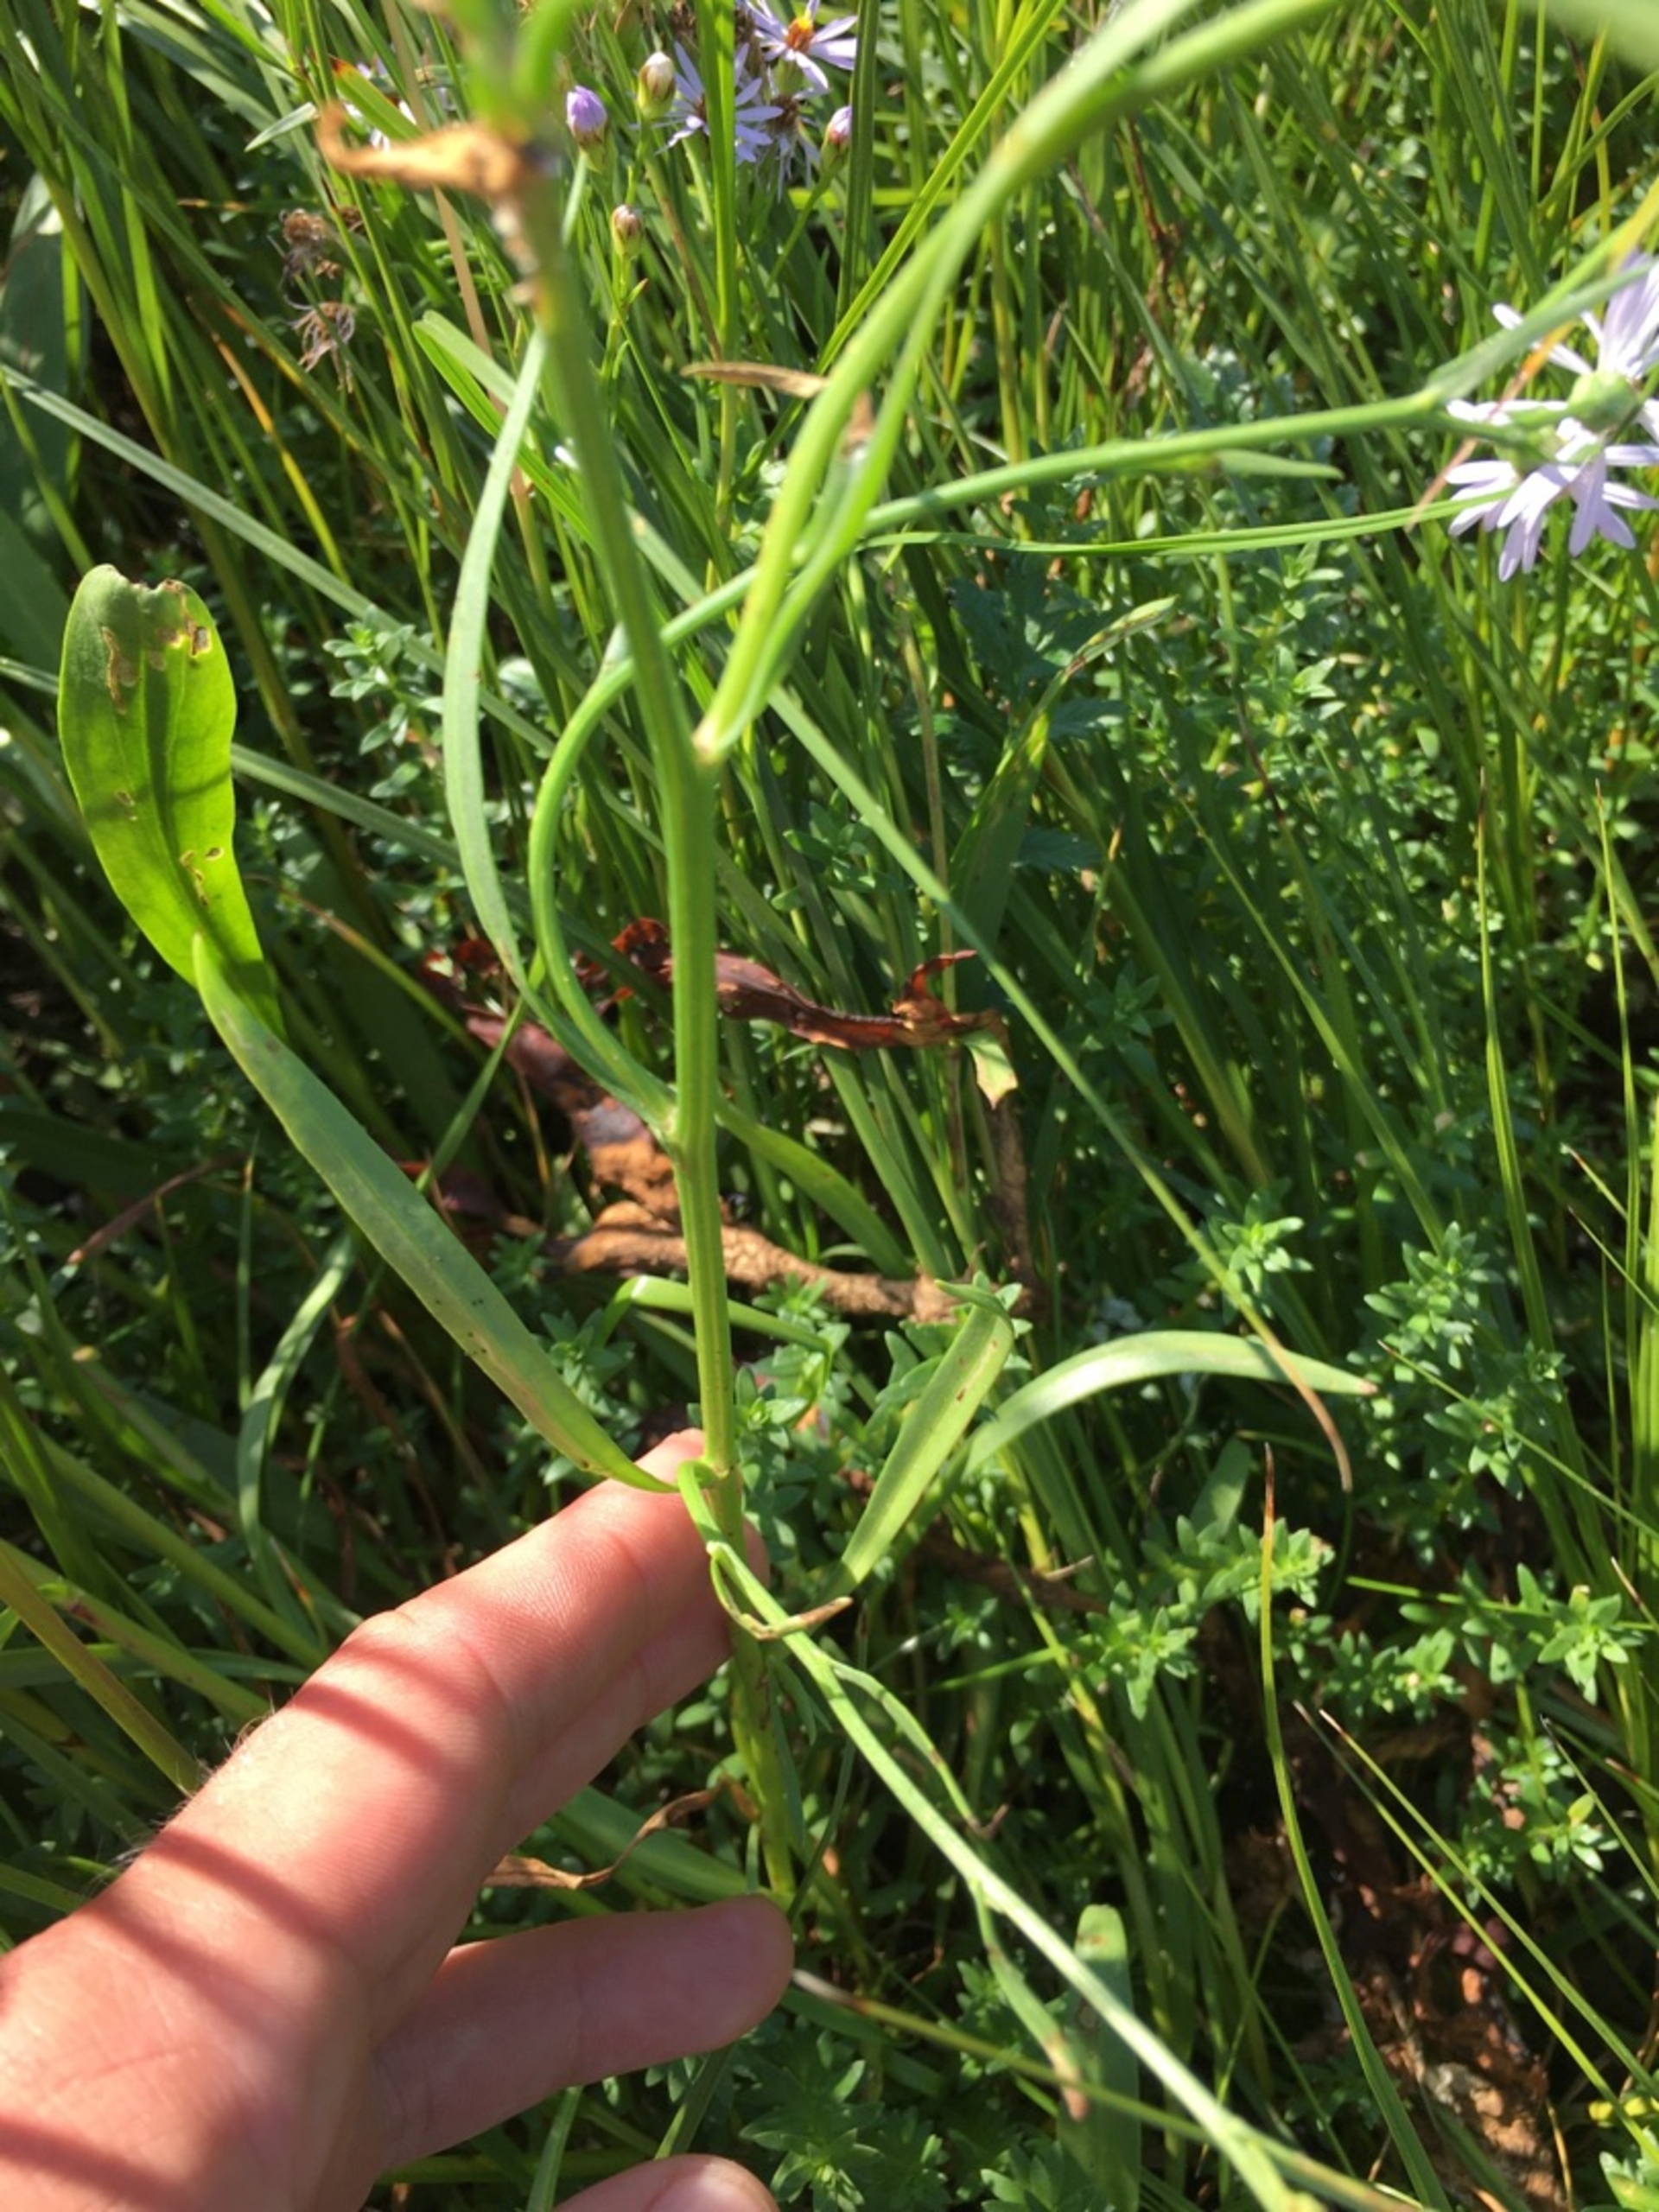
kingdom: Plantae
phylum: Tracheophyta
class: Magnoliopsida
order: Asterales
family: Asteraceae
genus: Tripolium
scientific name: Tripolium pannonicum
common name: Strandasters (underart)
